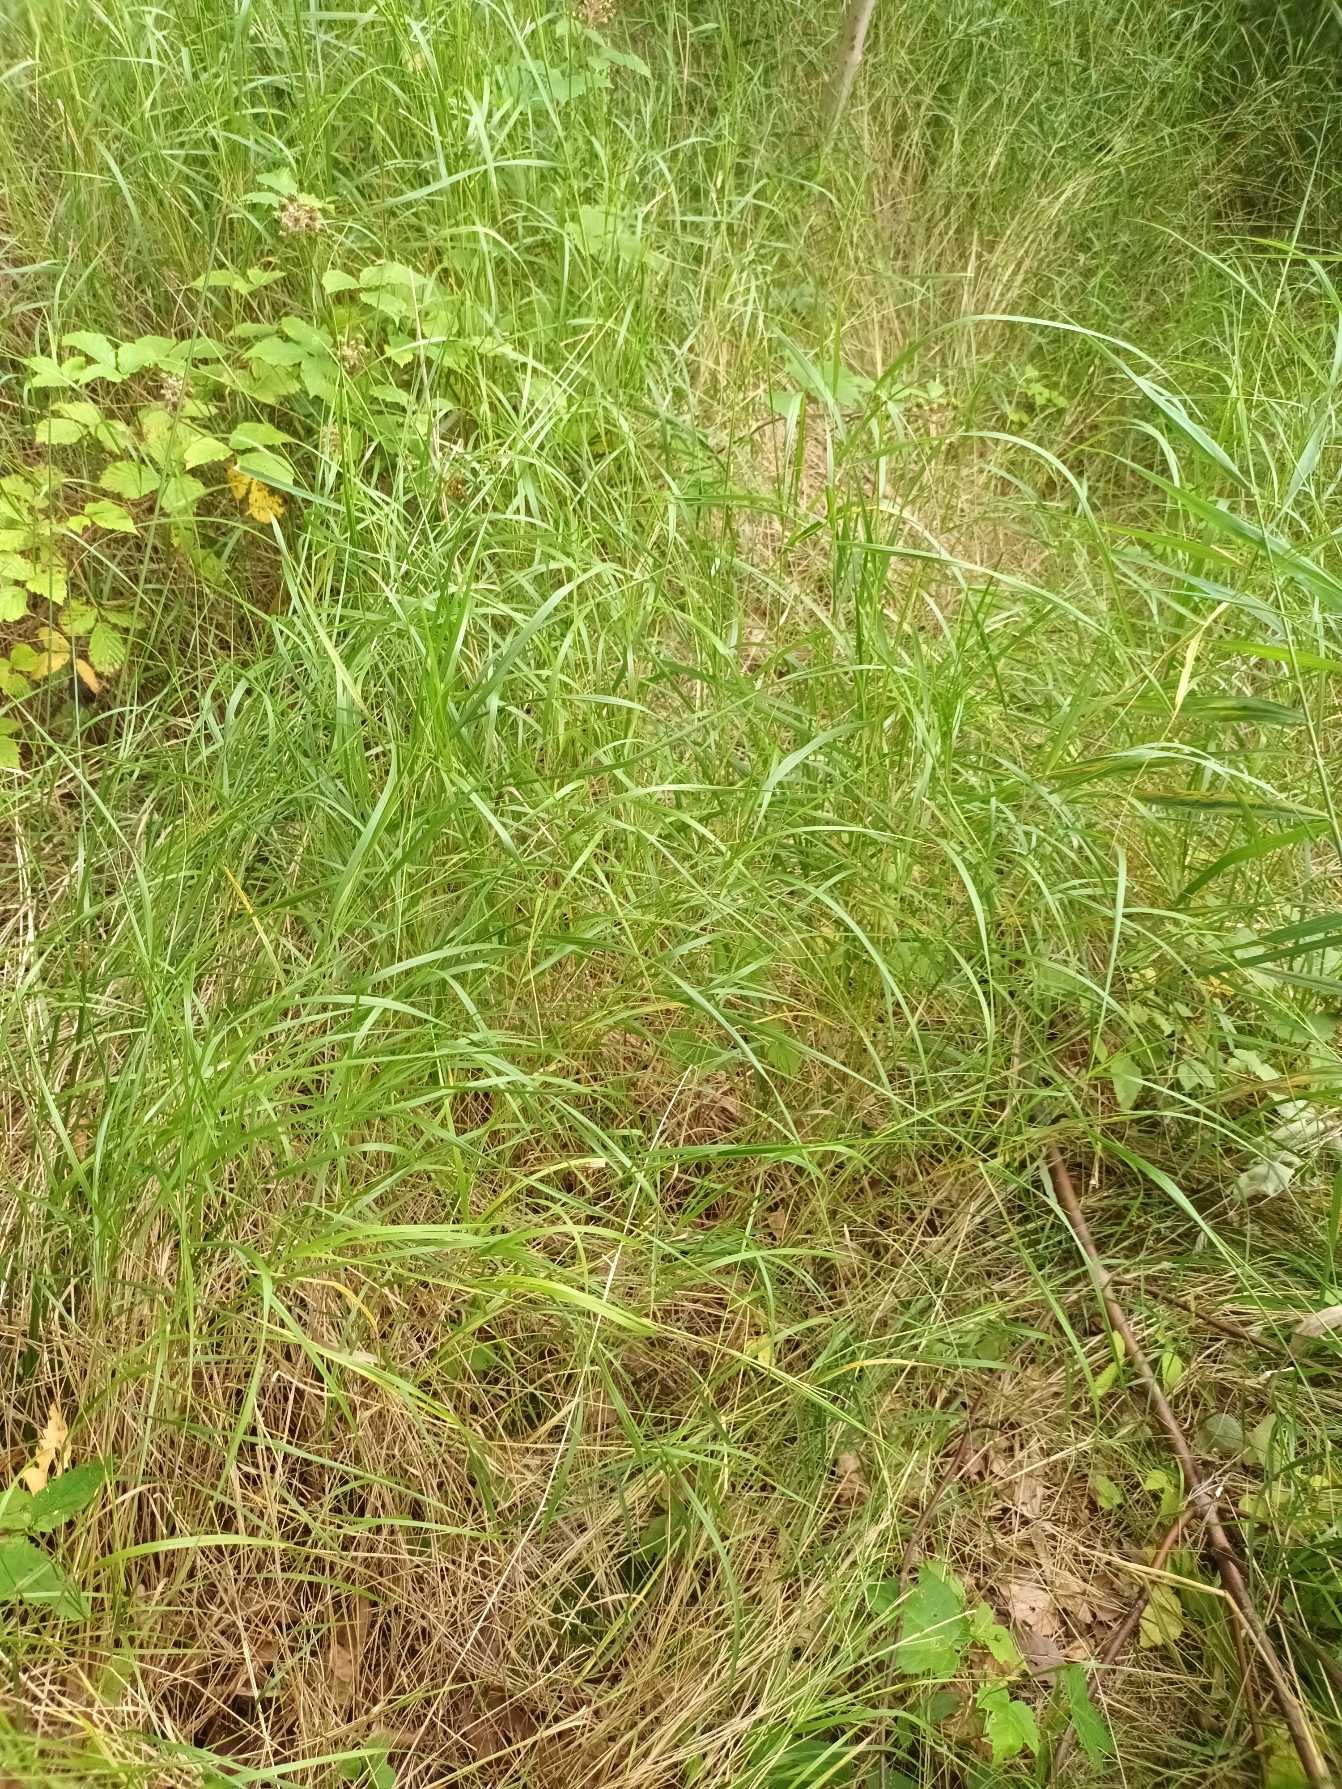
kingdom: Plantae
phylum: Tracheophyta
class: Liliopsida
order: Poales
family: Poaceae
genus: Calamagrostis
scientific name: Calamagrostis canescens
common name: Eng-rørhvene
